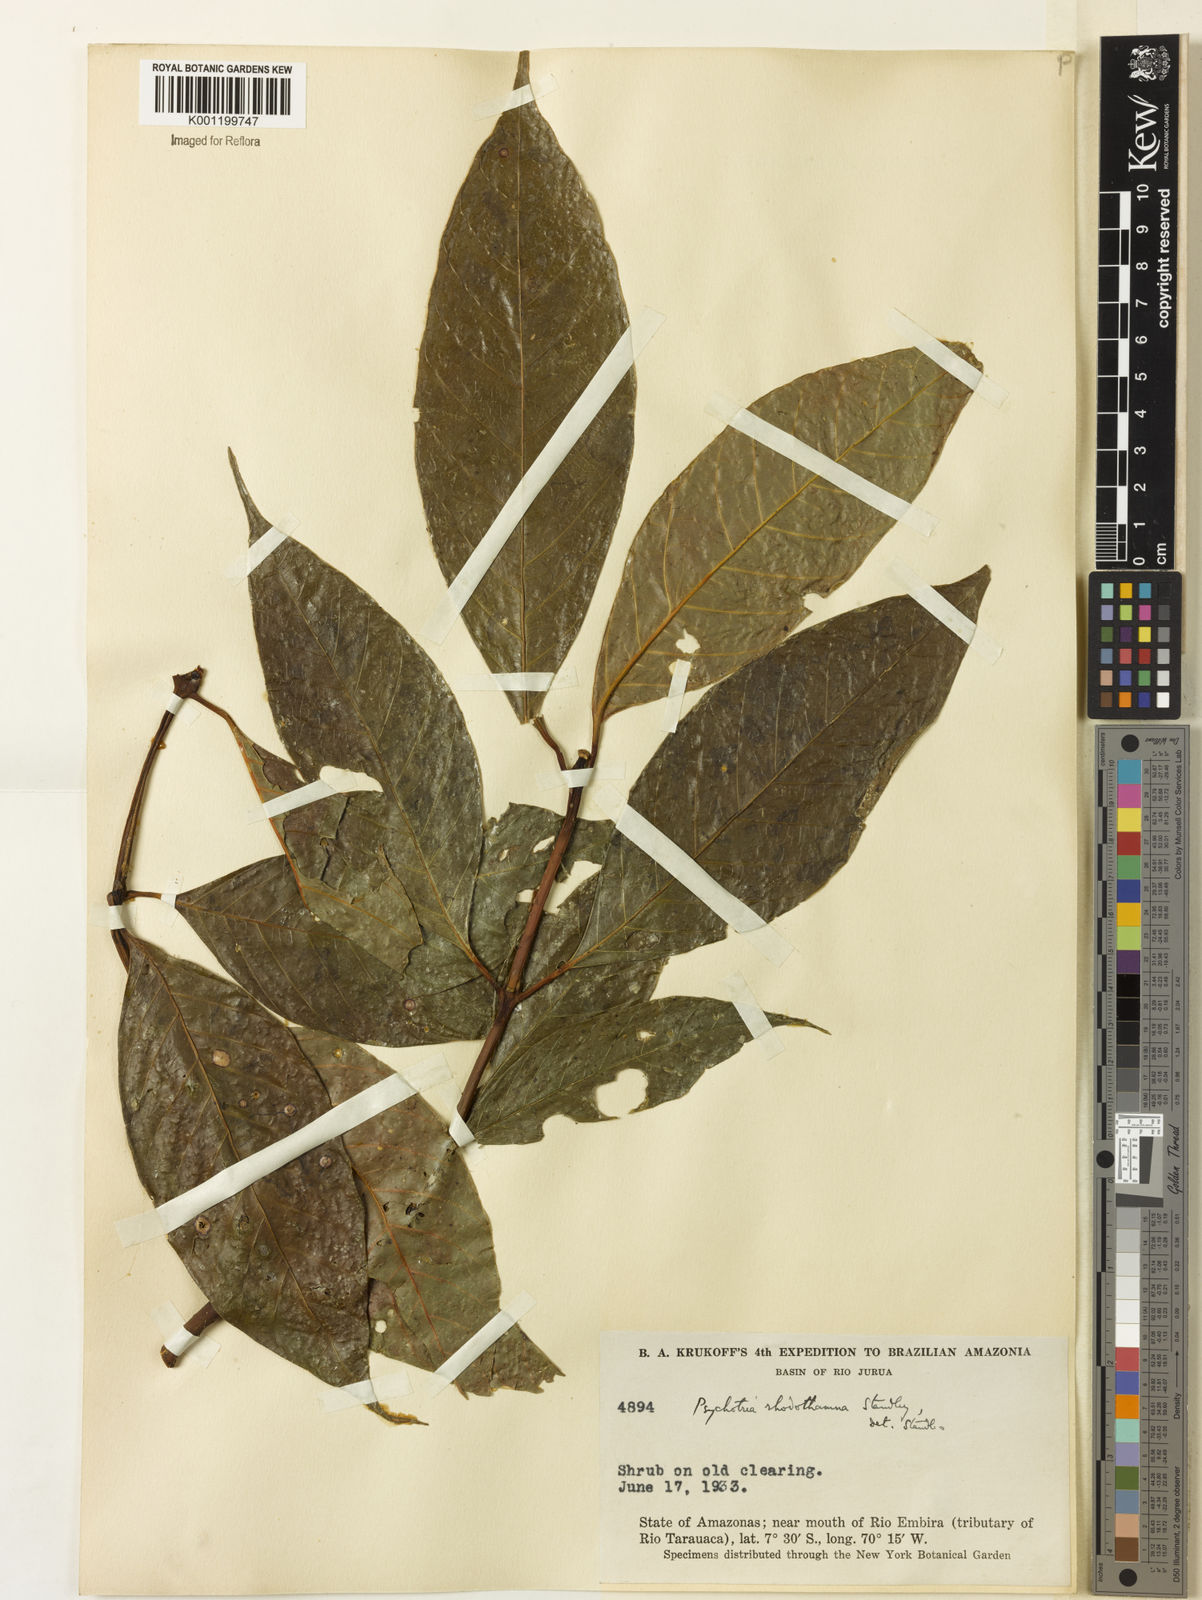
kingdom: Plantae
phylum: Tracheophyta
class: Magnoliopsida
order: Gentianales
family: Rubiaceae
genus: Palicourea
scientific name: Palicourea rhodothamna
